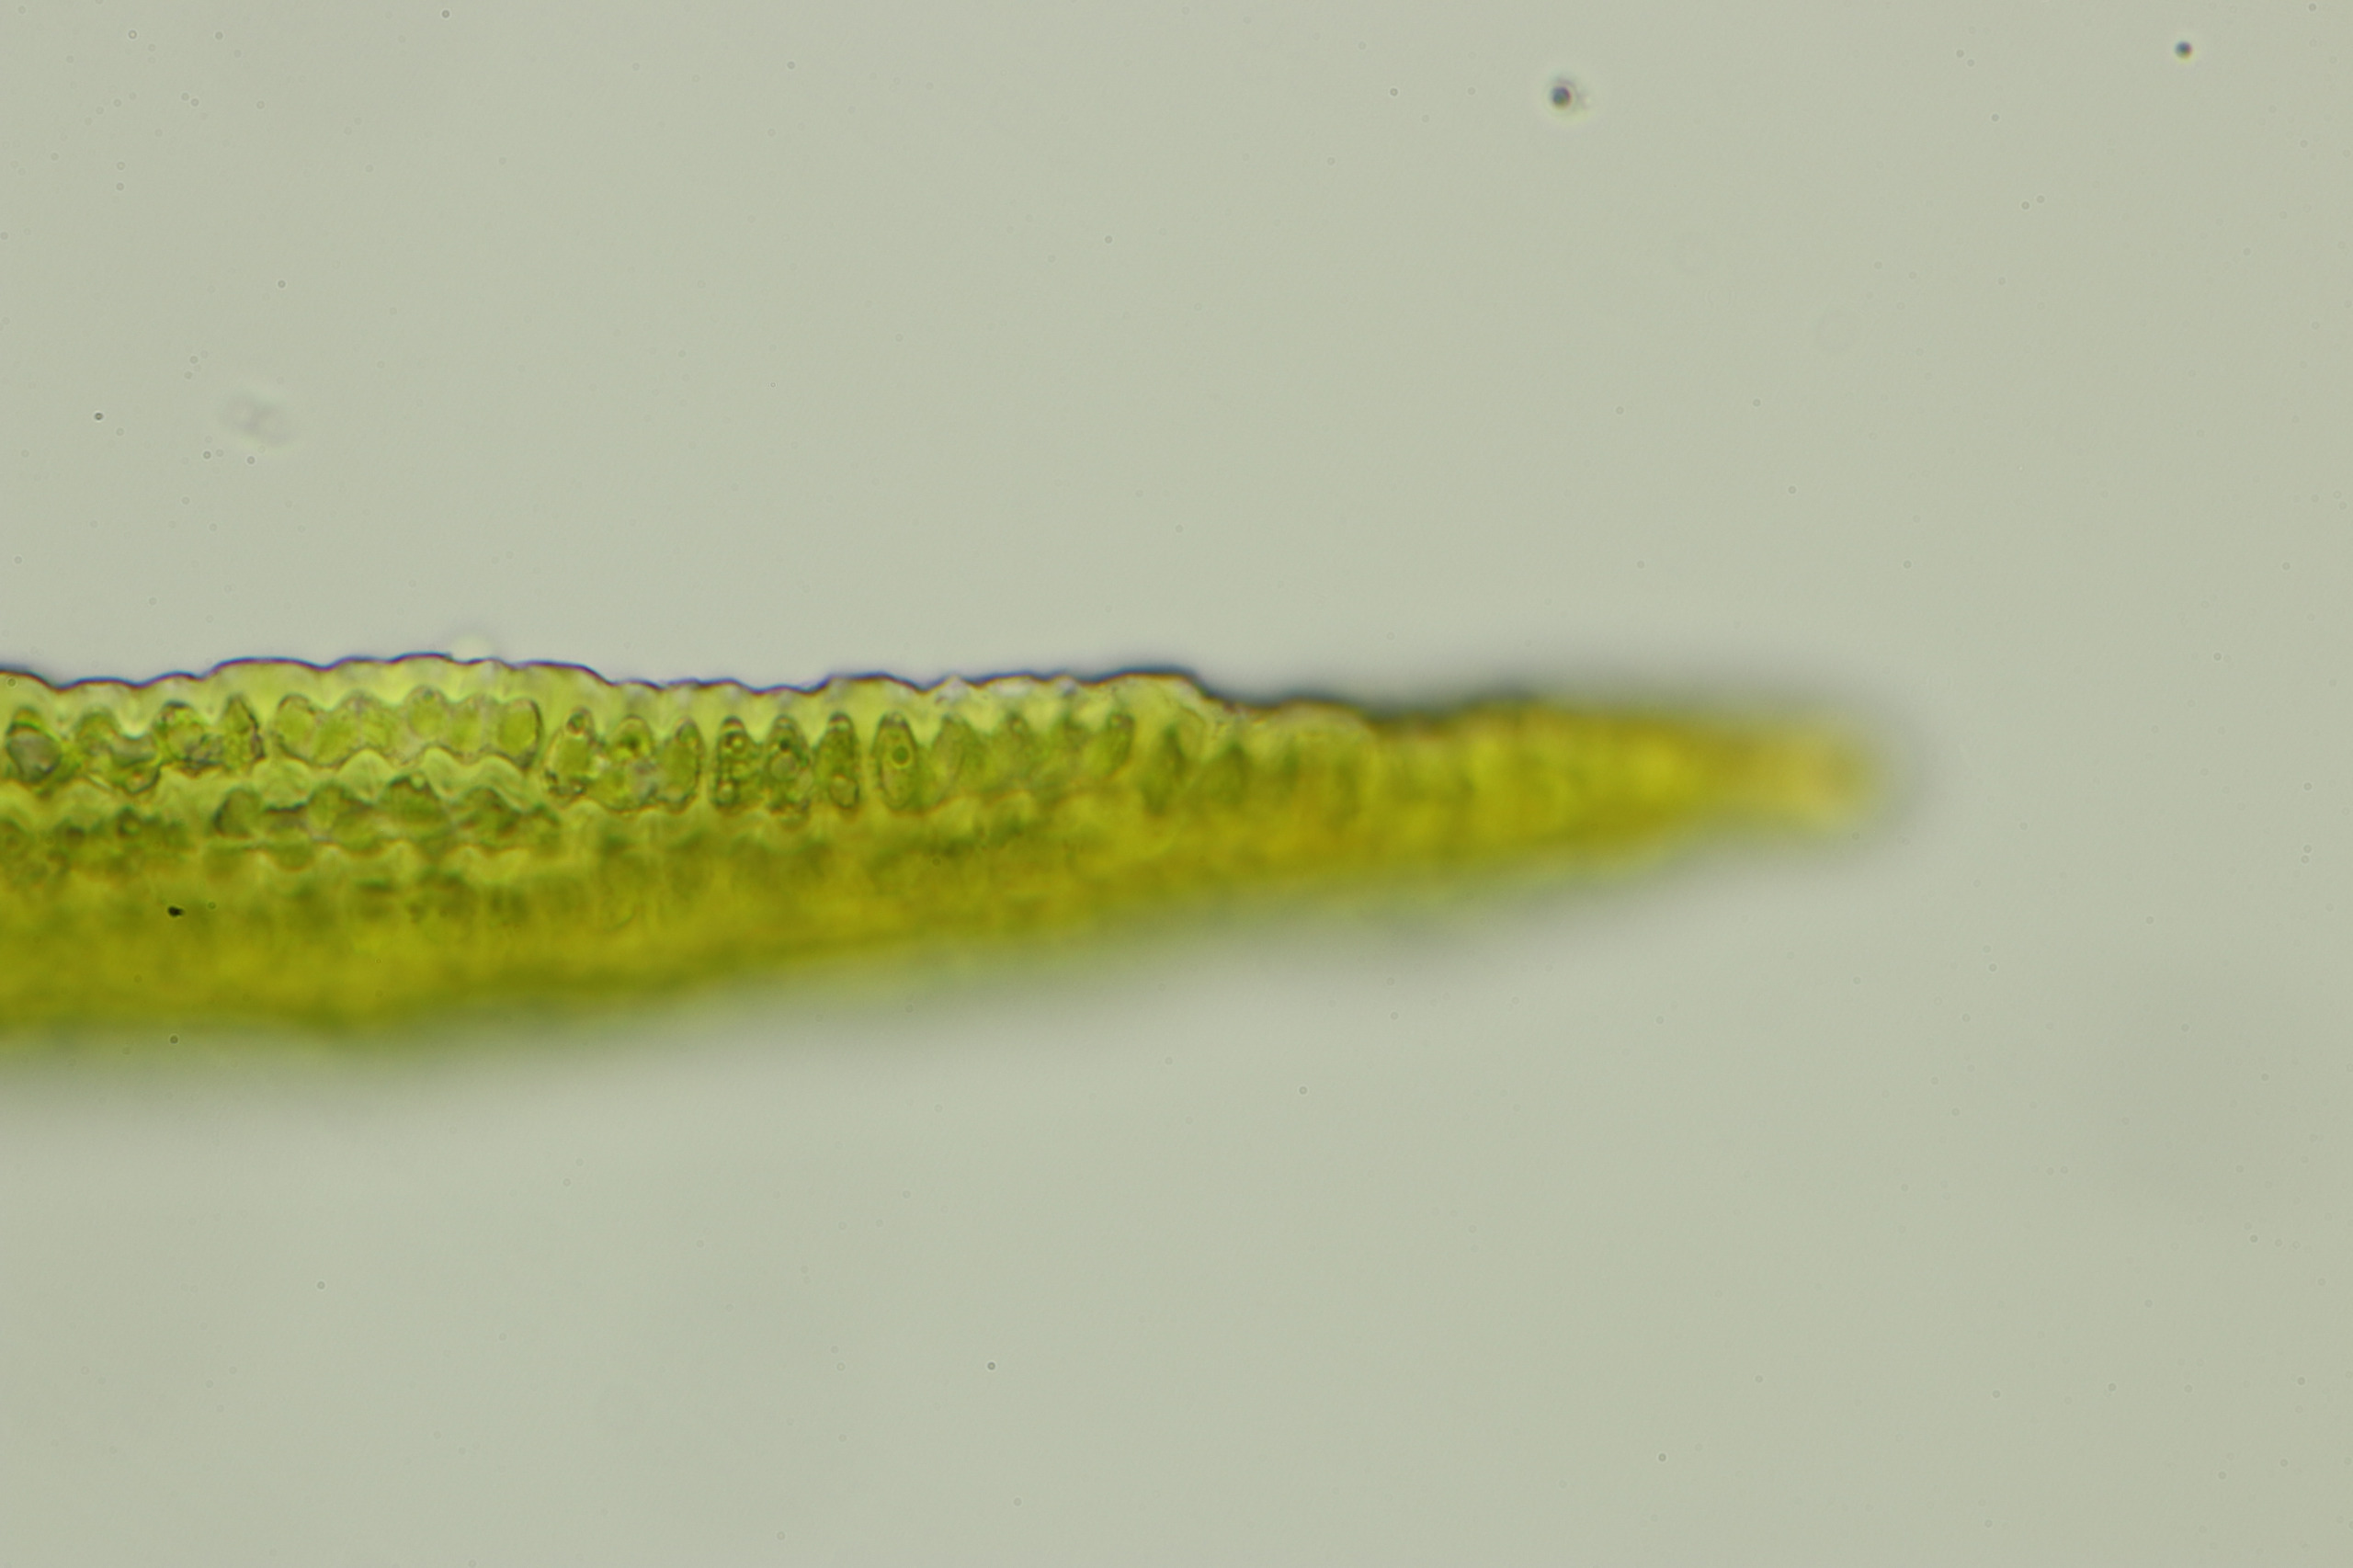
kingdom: Plantae
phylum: Bryophyta
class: Bryopsida
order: Grimmiales
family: Grimmiaceae
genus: Dilutineuron
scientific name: Dilutineuron fasciculare
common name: Knippe-børstemos
